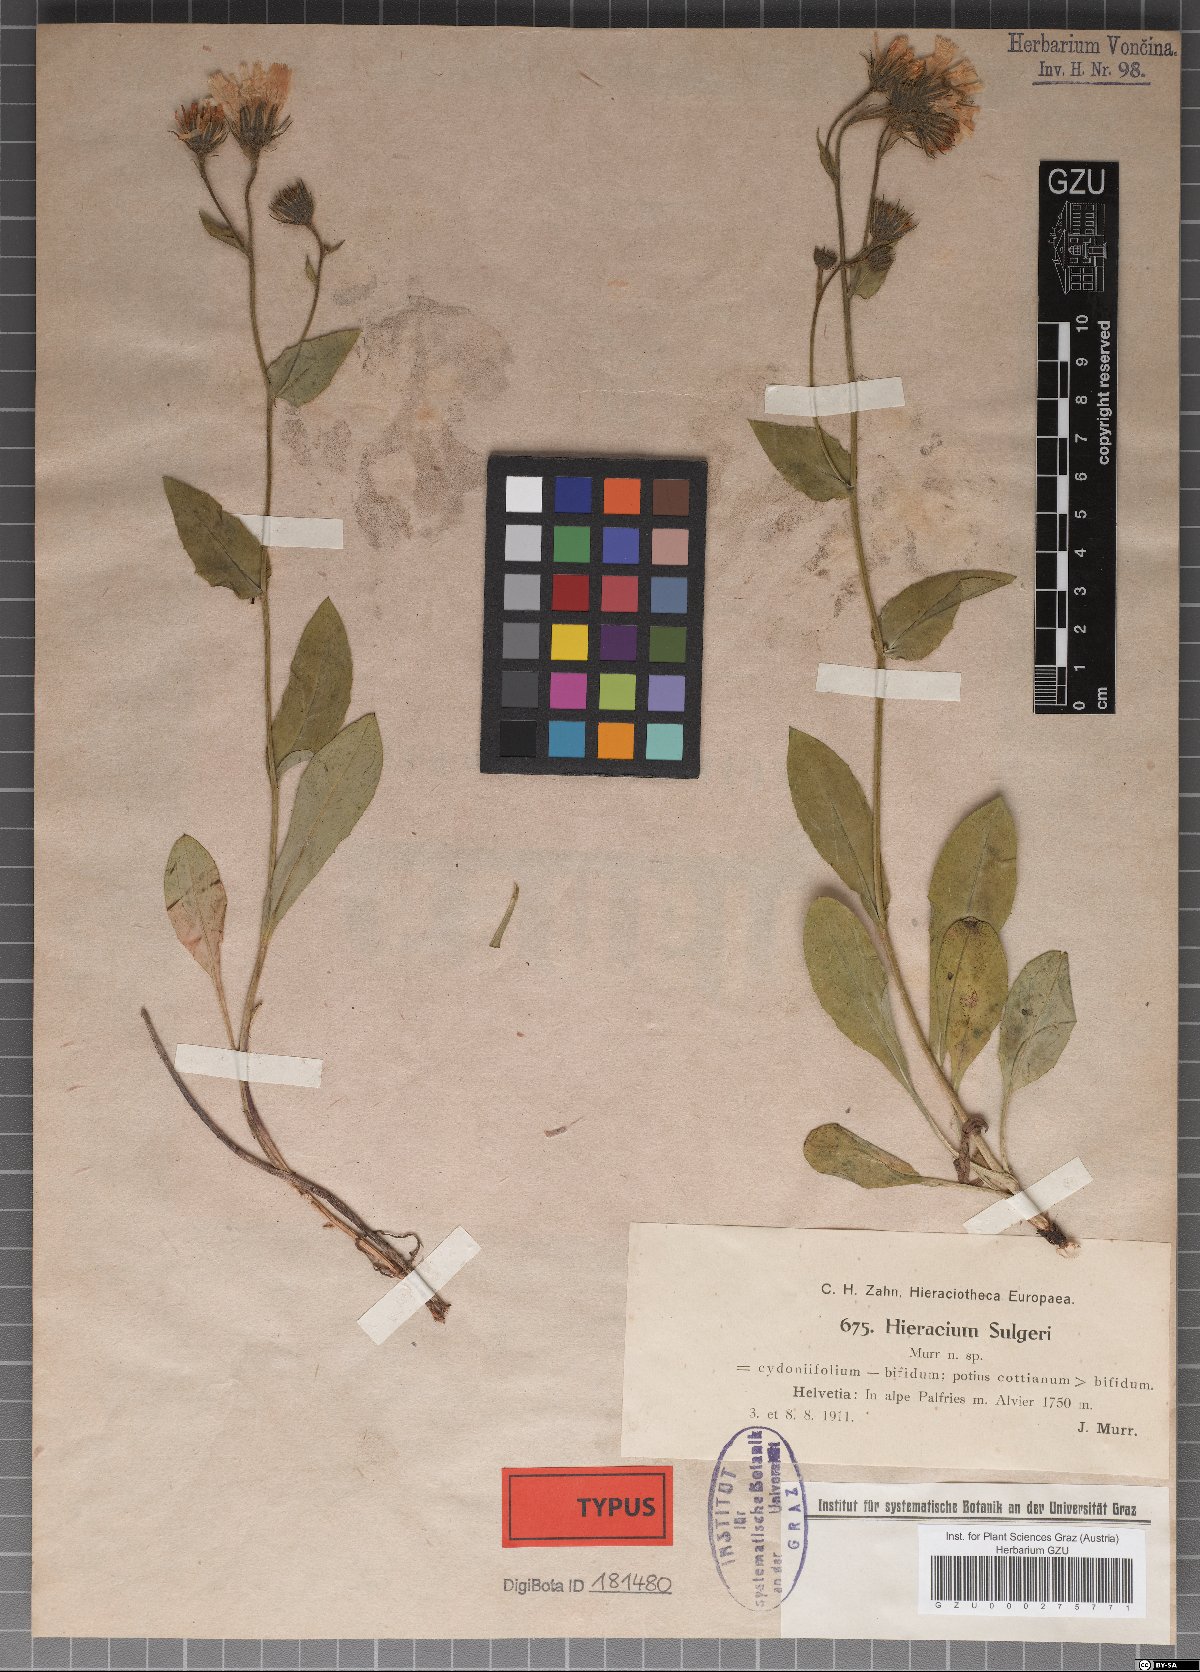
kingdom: Plantae
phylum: Tracheophyta
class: Magnoliopsida
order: Asterales
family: Asteraceae
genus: Hieracium
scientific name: Hieracium cydoniifolium
